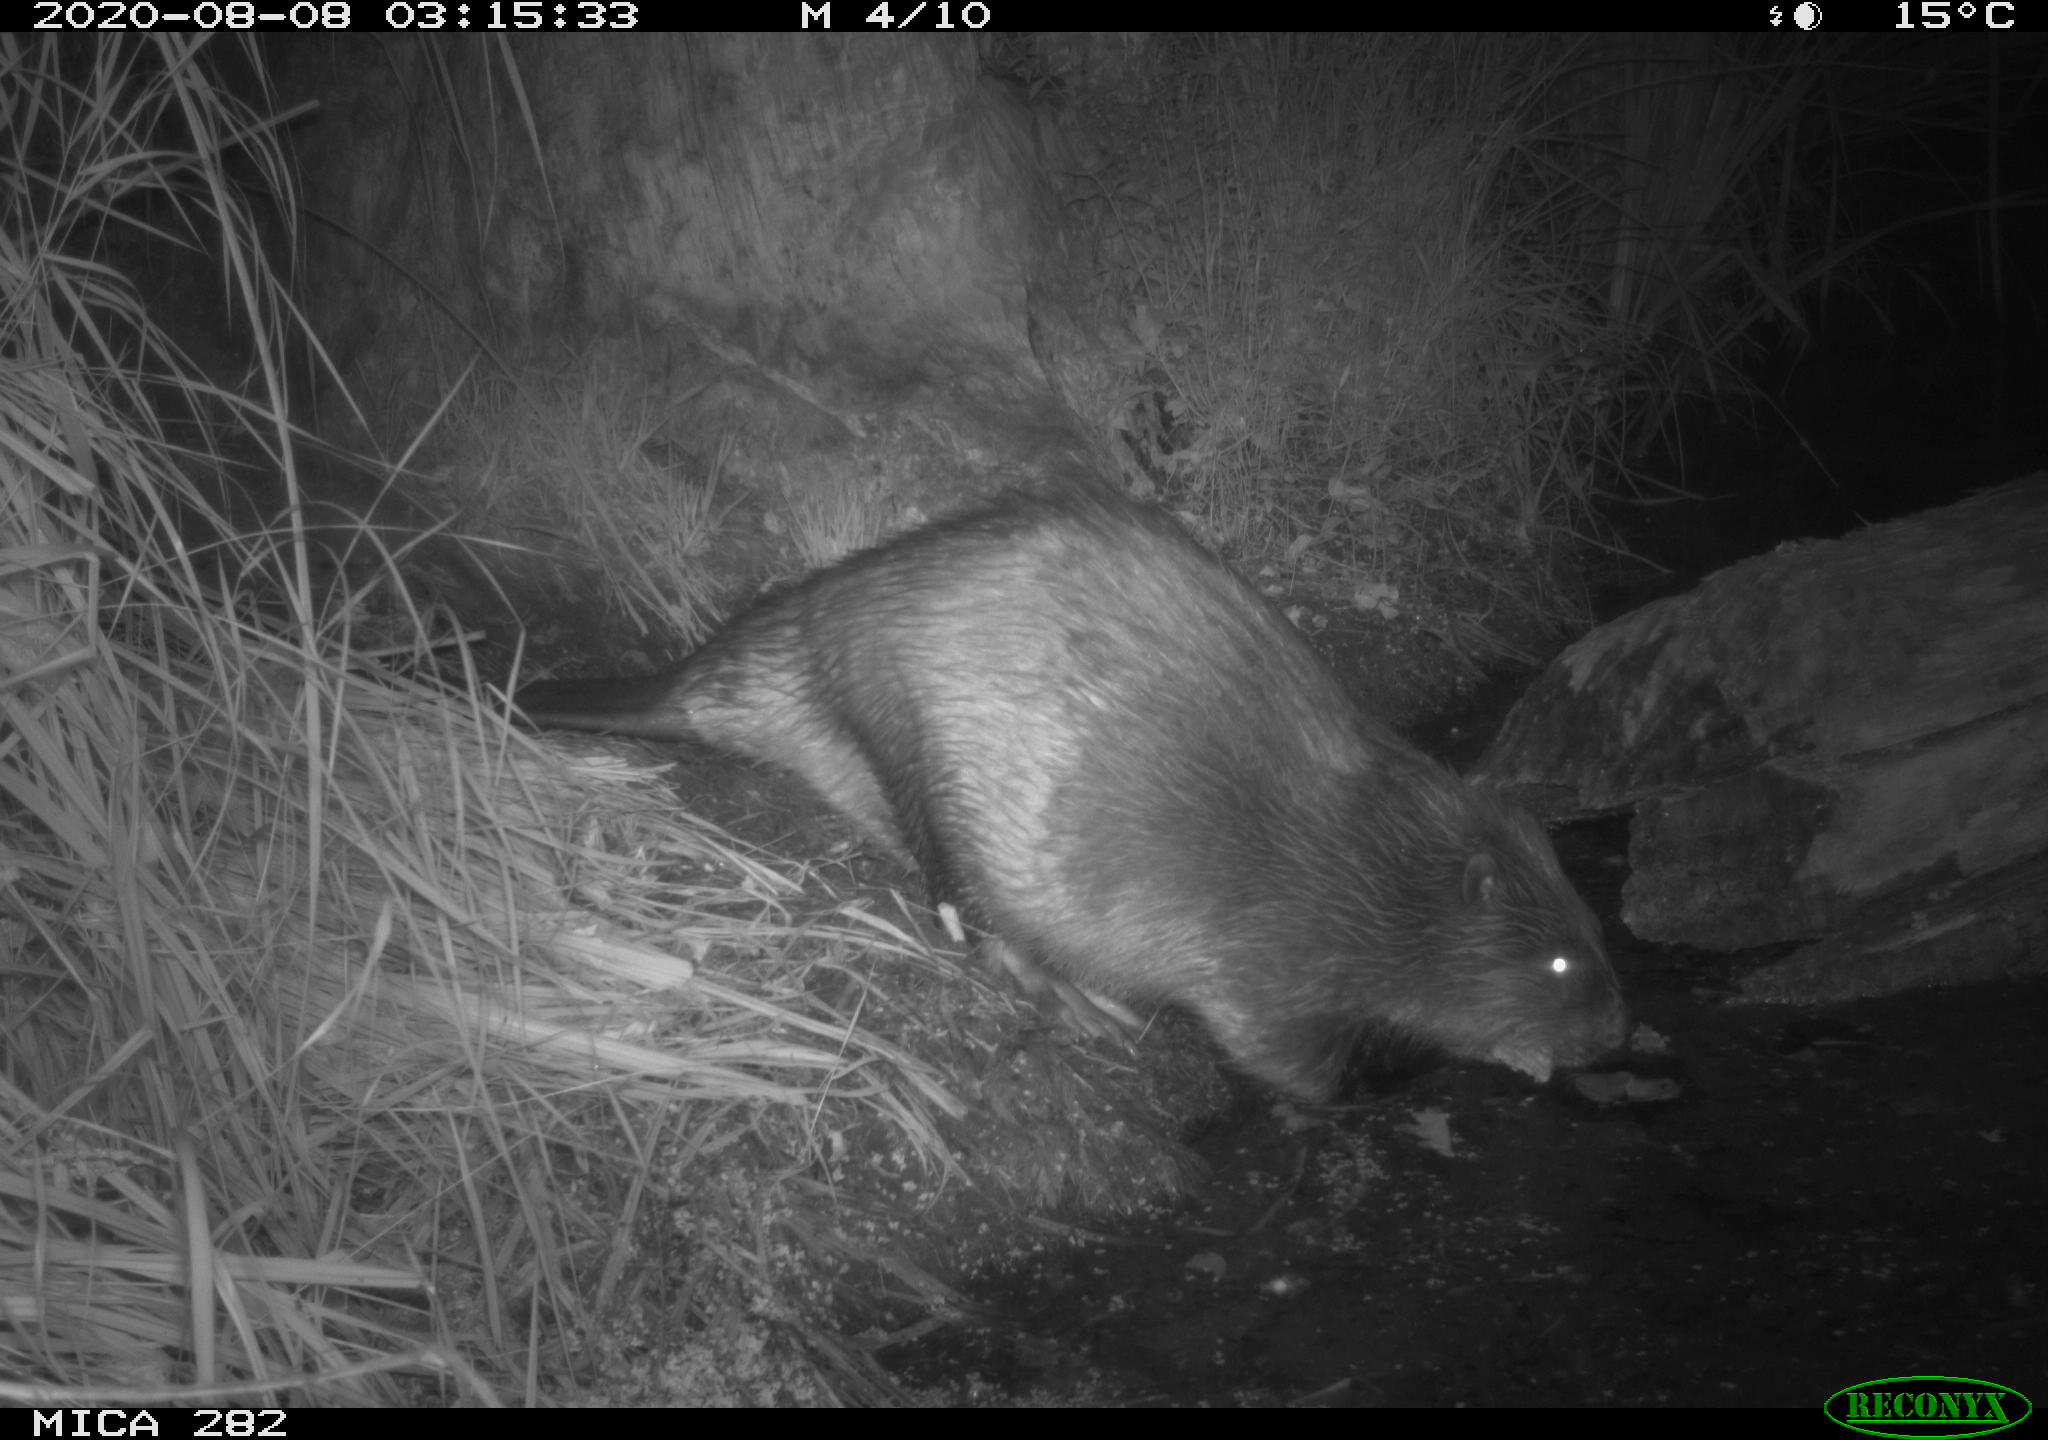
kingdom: Animalia
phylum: Chordata
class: Mammalia
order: Rodentia
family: Castoridae
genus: Castor
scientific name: Castor fiber
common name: Eurasian beaver
